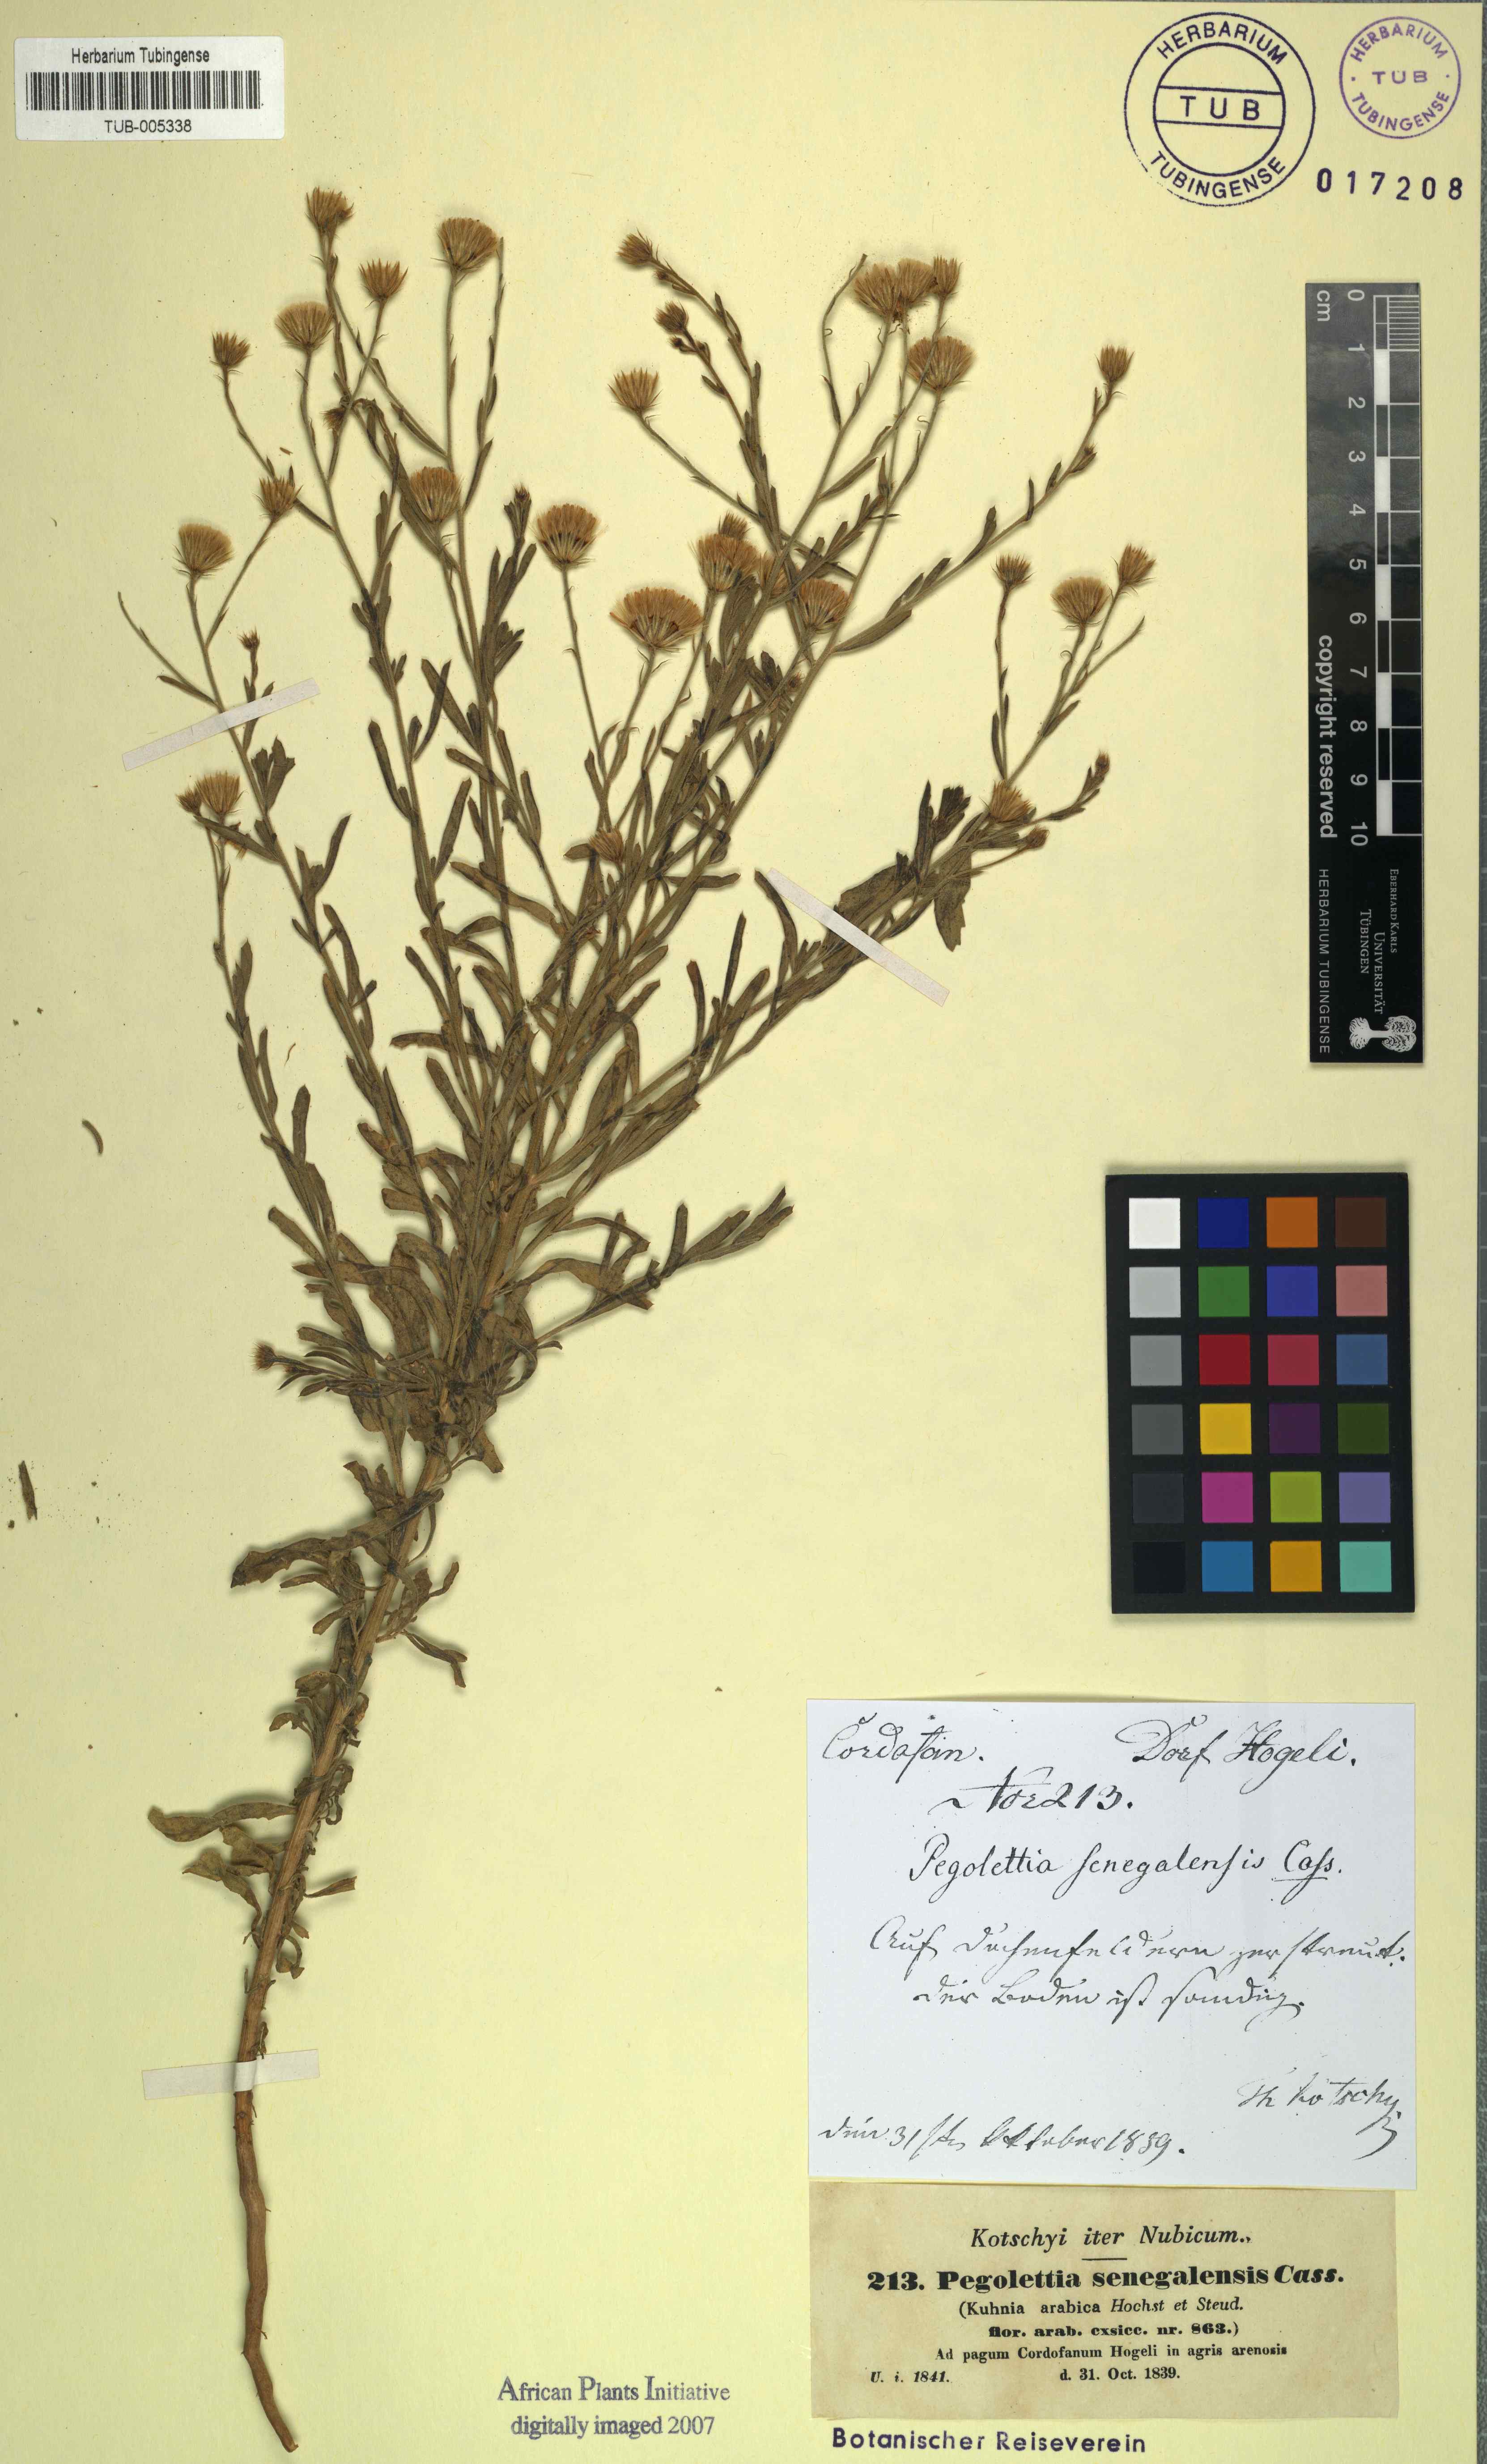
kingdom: Plantae
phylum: Tracheophyta
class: Magnoliopsida
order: Asterales
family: Asteraceae
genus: Pegolettia
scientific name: Pegolettia senegalensis
